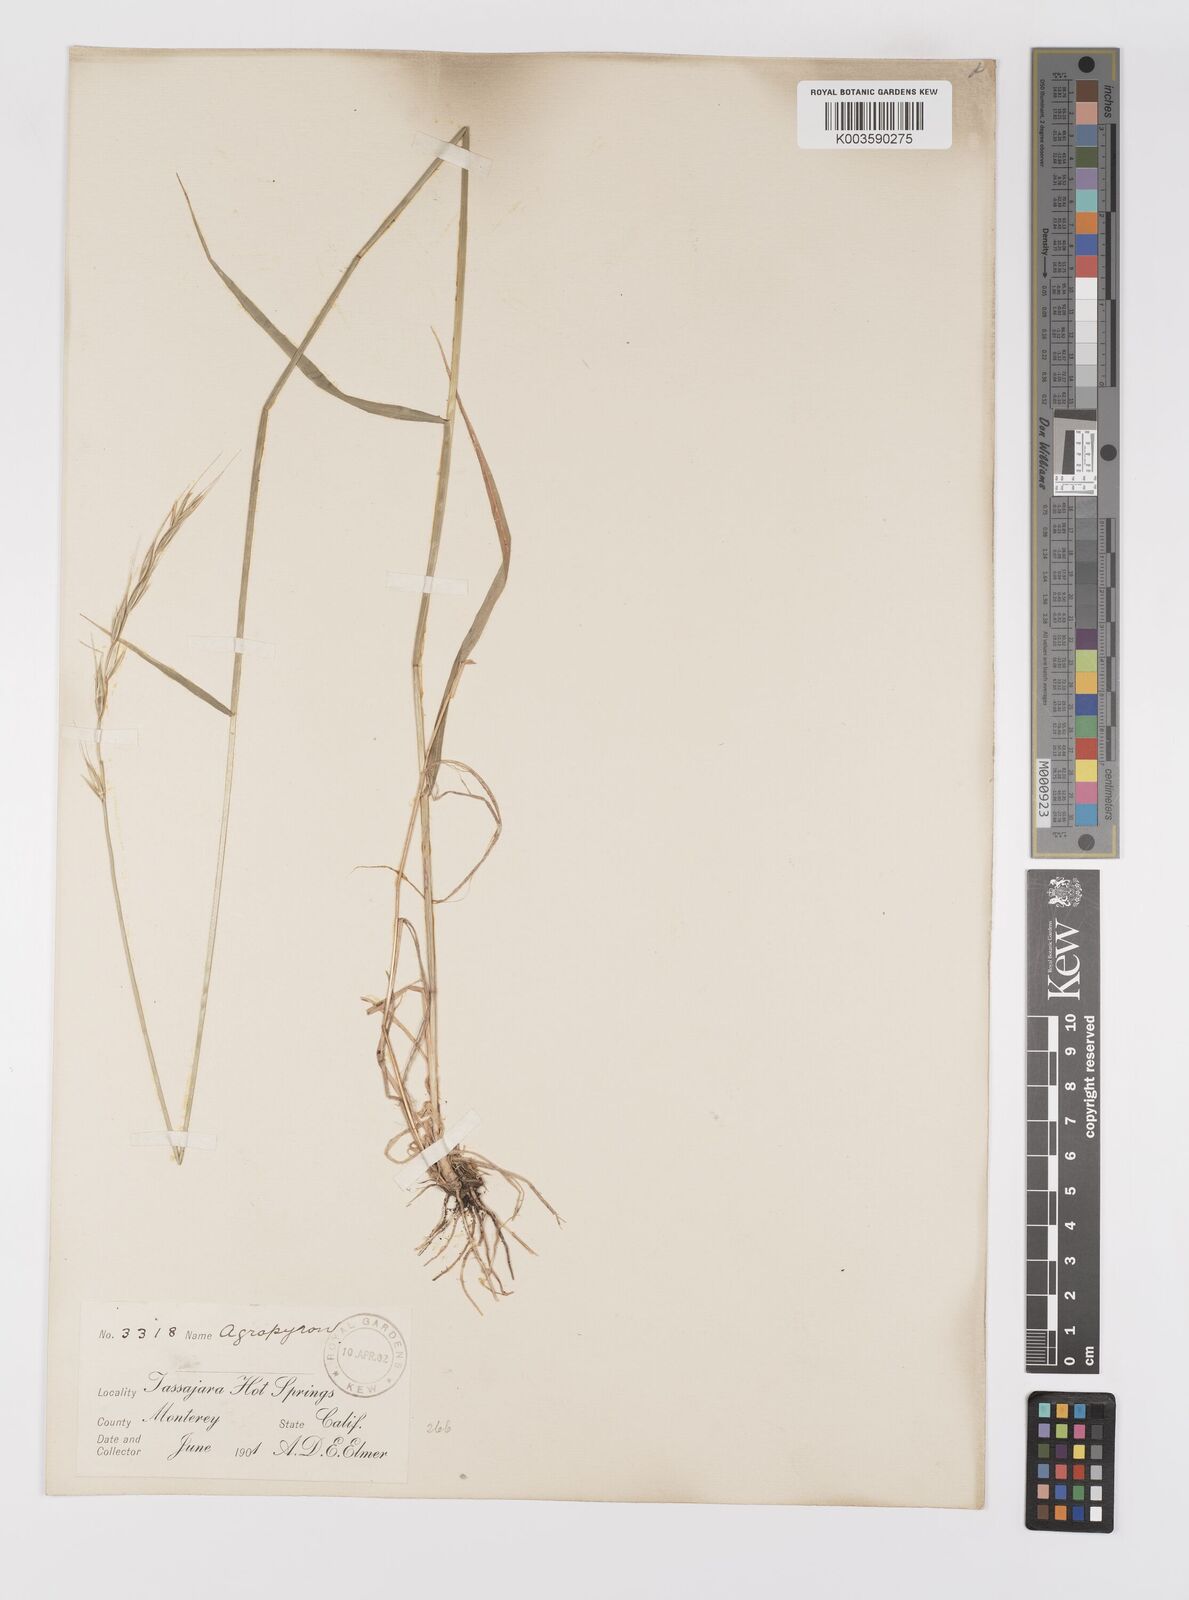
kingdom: Plantae
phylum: Tracheophyta
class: Liliopsida
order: Poales
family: Poaceae
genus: Elymus
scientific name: Elymus
